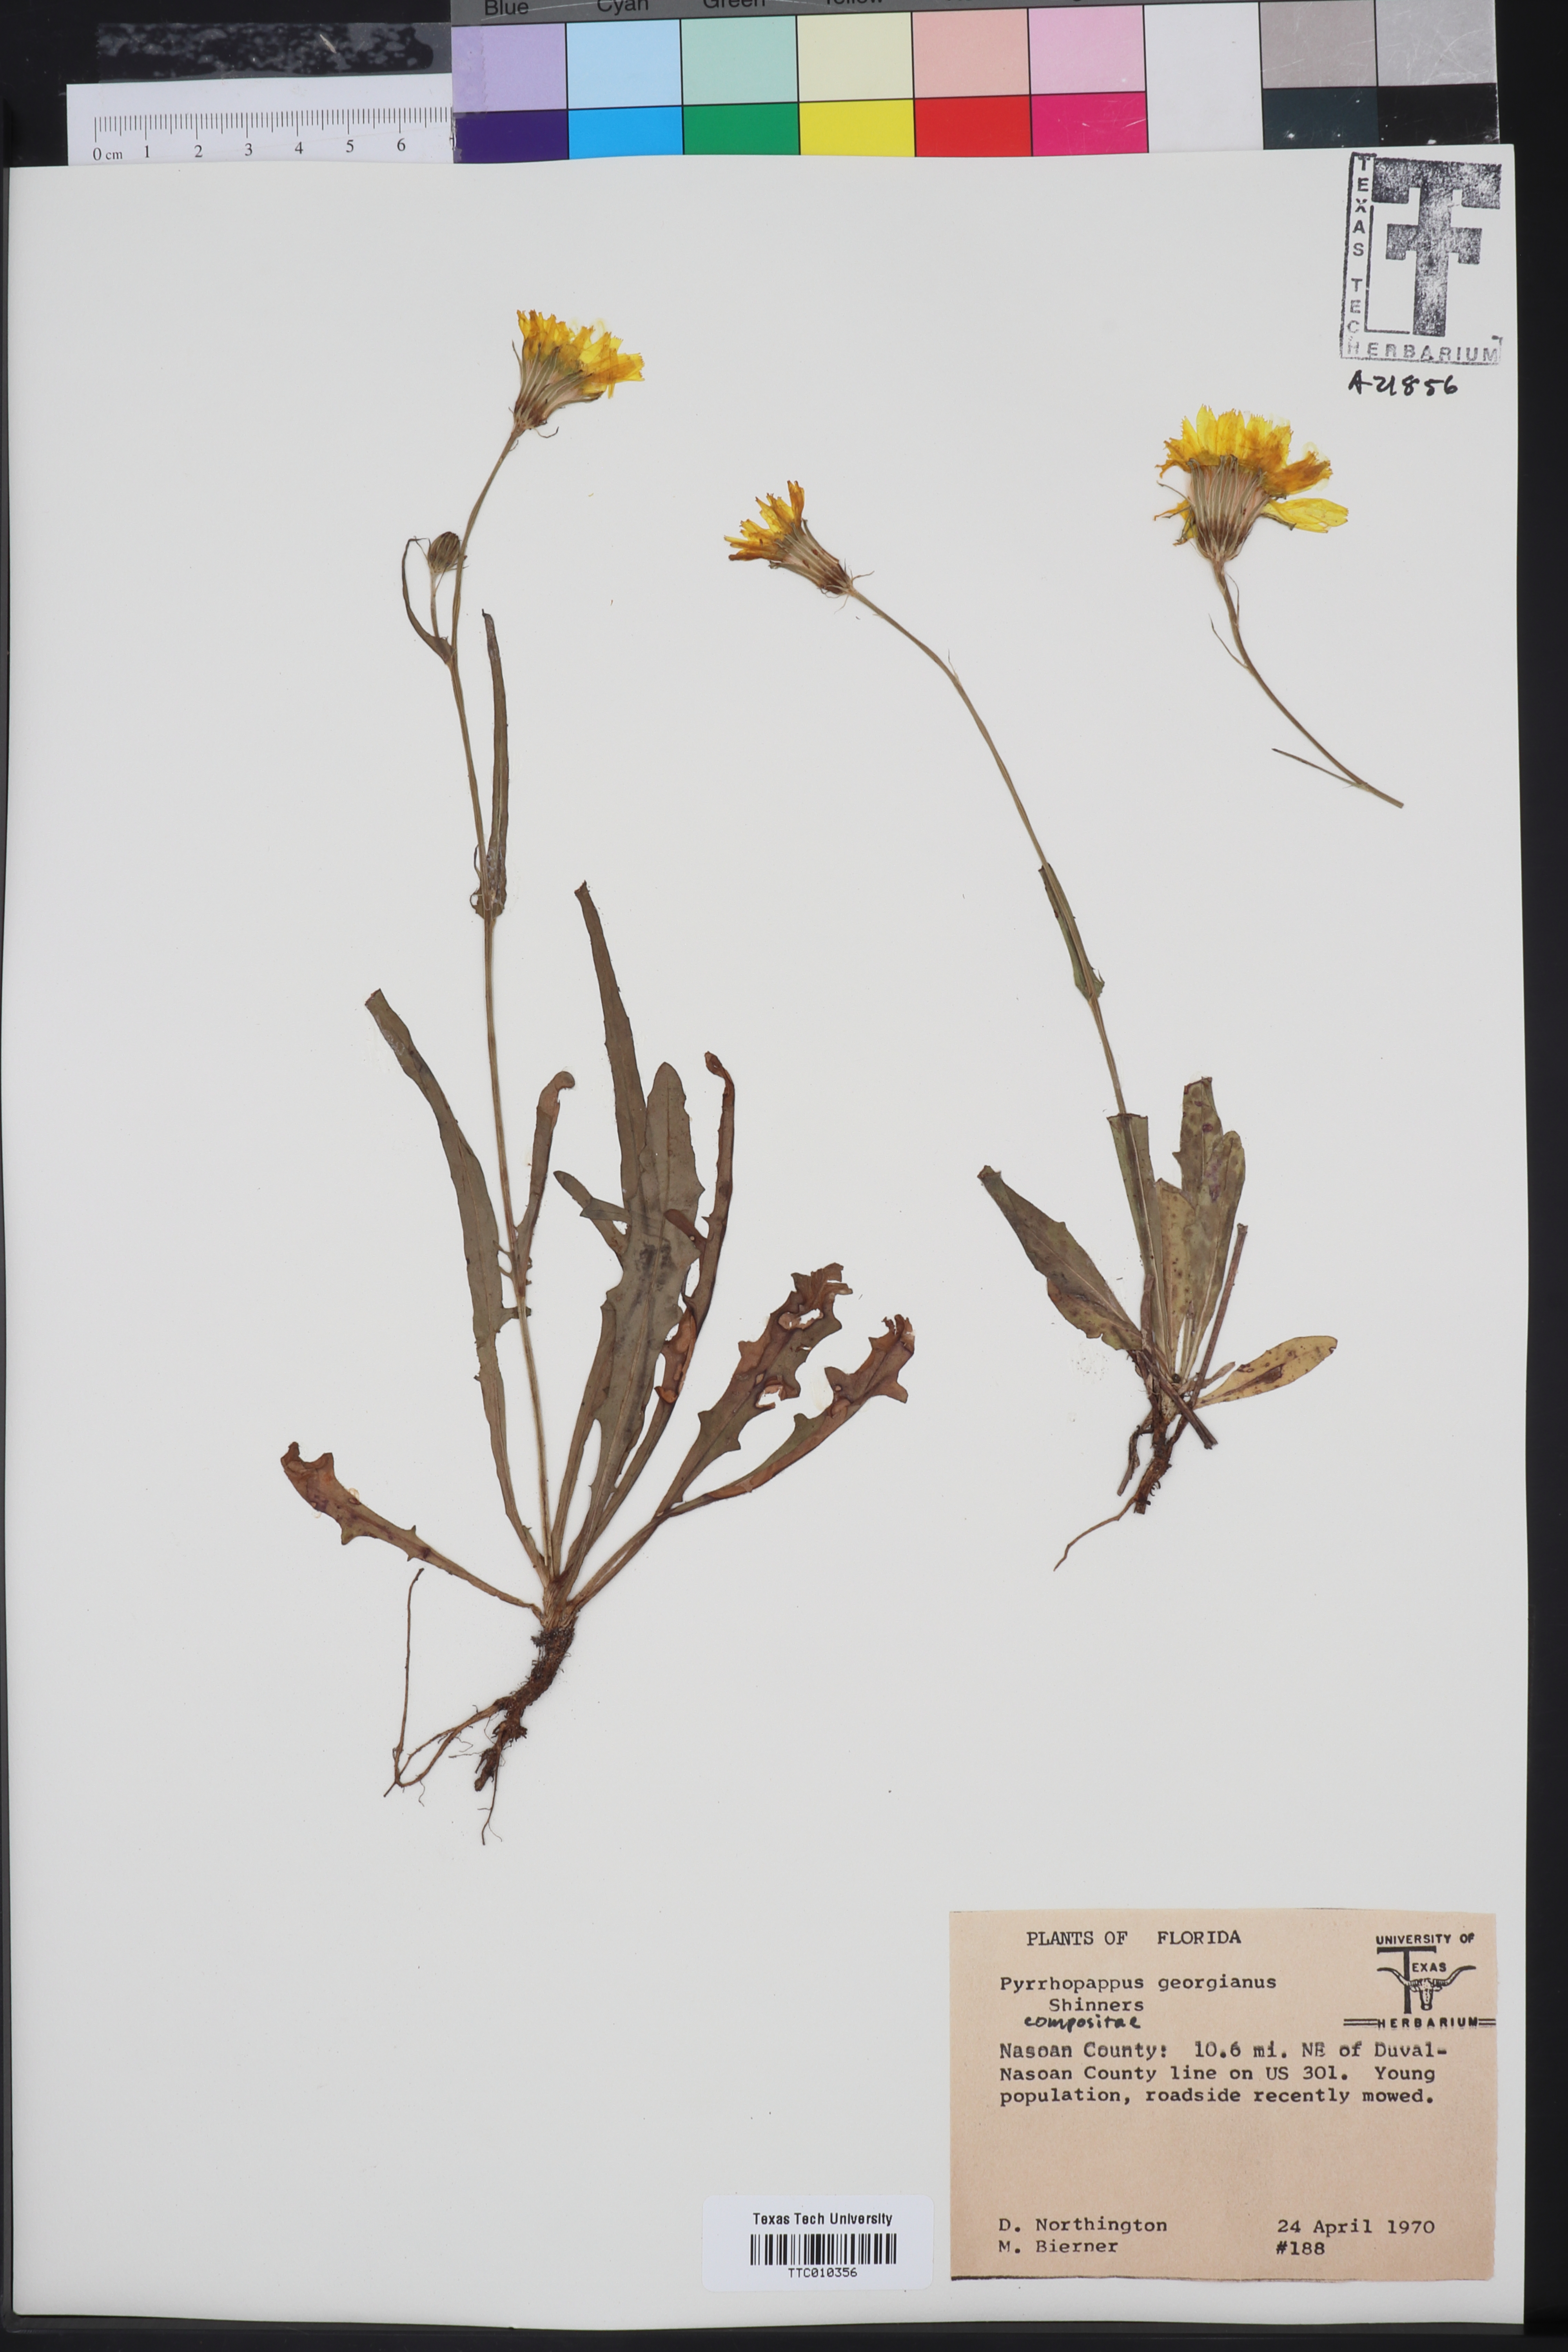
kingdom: Plantae
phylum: Tracheophyta
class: Magnoliopsida
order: Asterales
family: Asteraceae
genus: Pyrrhopappus
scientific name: Pyrrhopappus carolinianus
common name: Carolina desert-chicory
